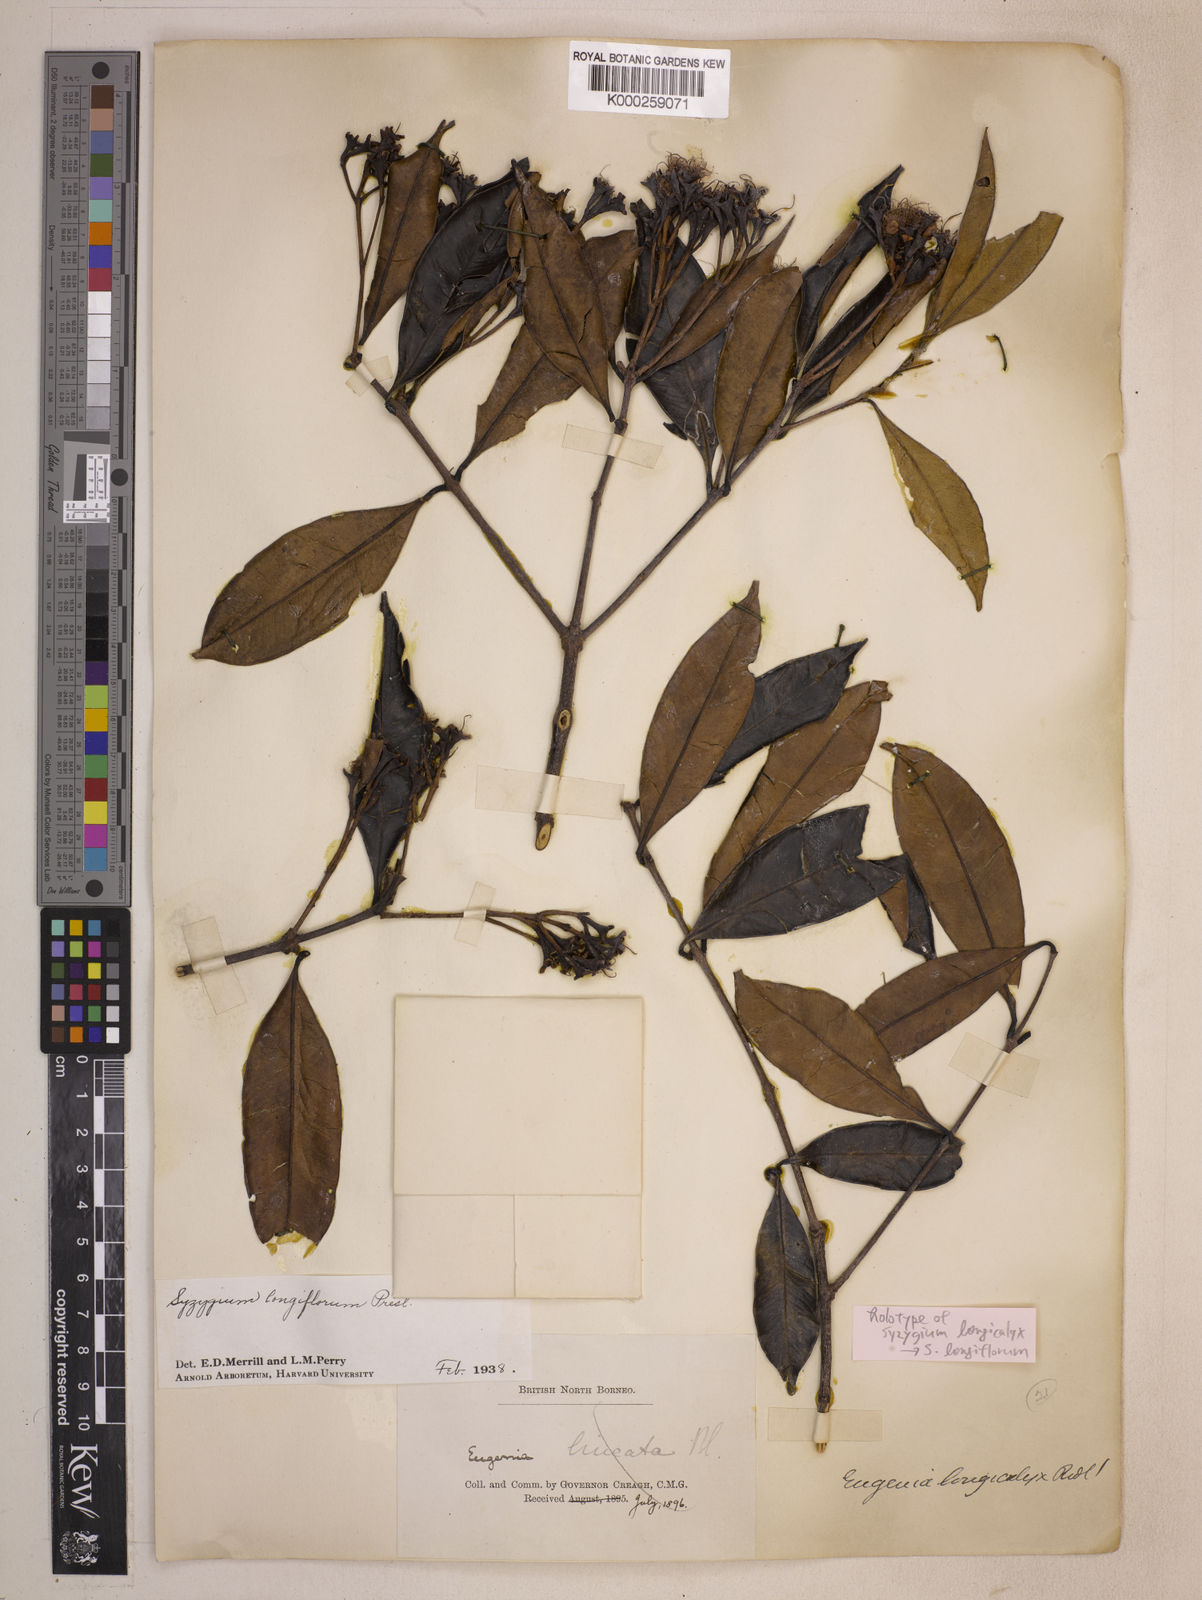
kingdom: Plantae
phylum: Tracheophyta
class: Magnoliopsida
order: Myrtales
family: Myrtaceae
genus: Syzygium
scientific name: Syzygium lineatum
